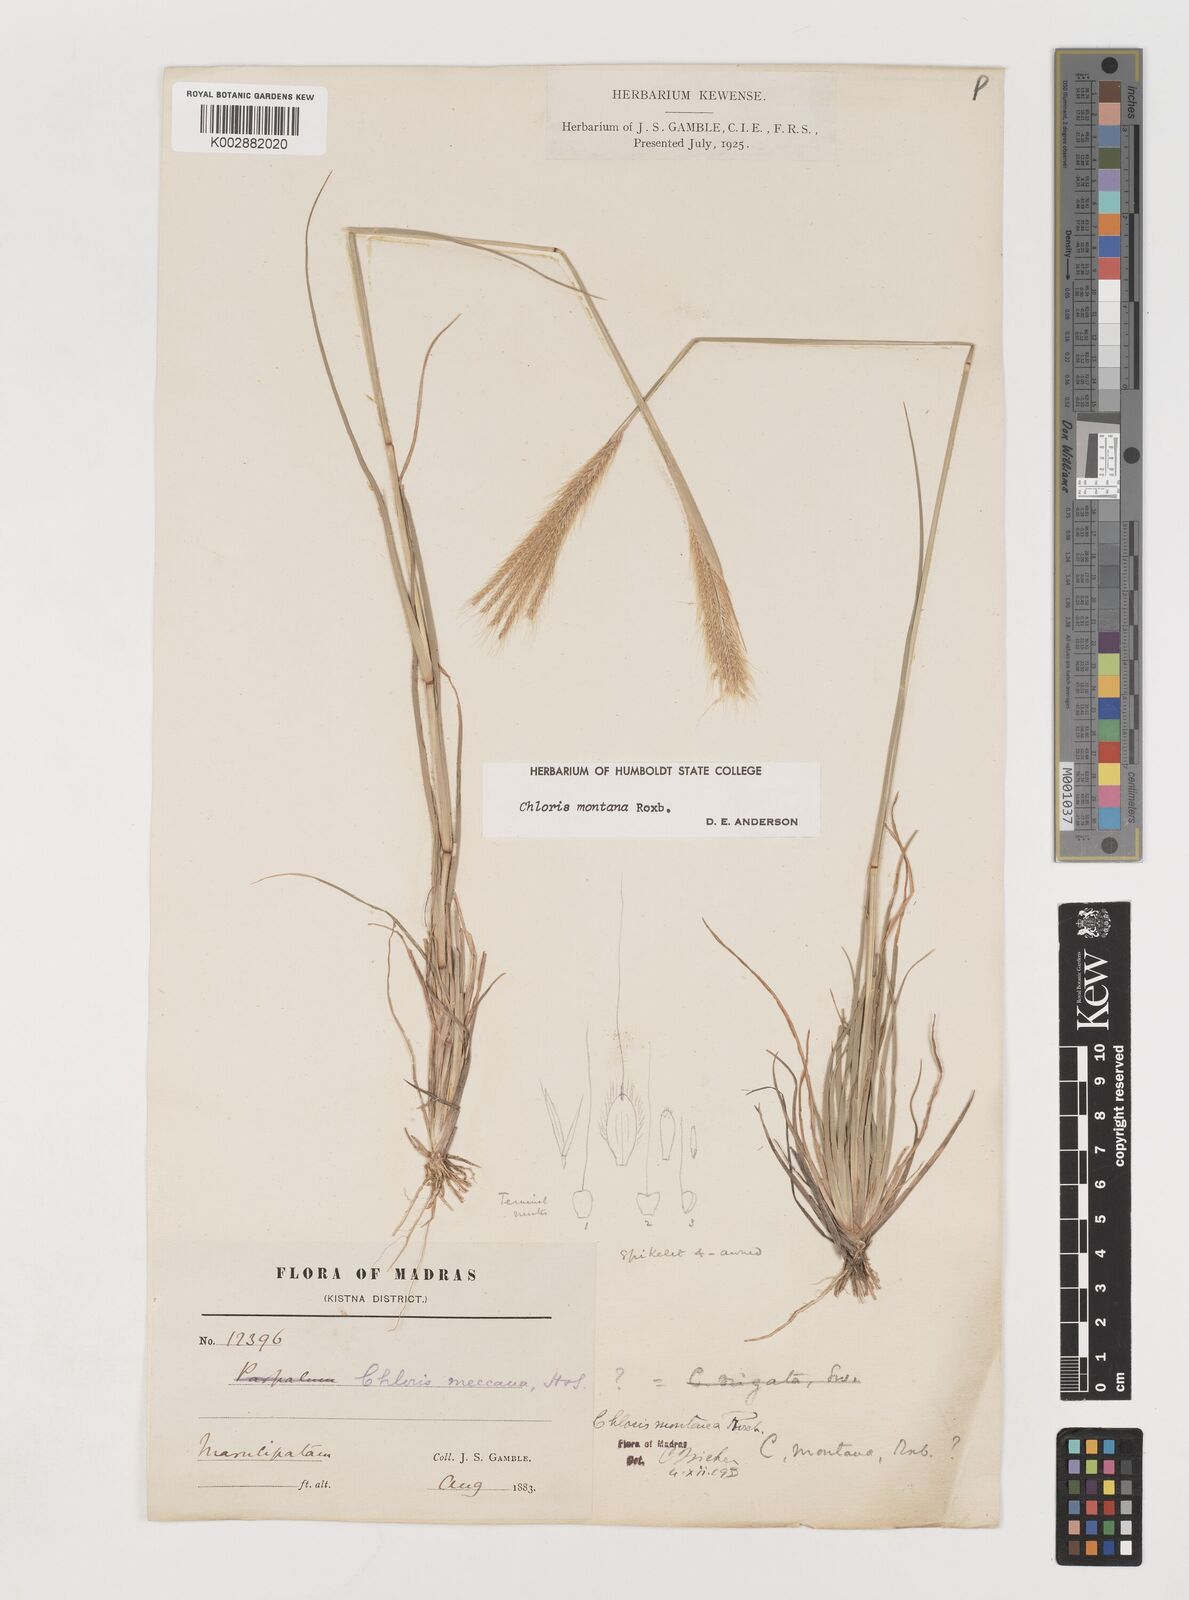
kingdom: Plantae
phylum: Tracheophyta
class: Liliopsida
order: Poales
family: Poaceae
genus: Chloris
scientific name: Chloris montana
